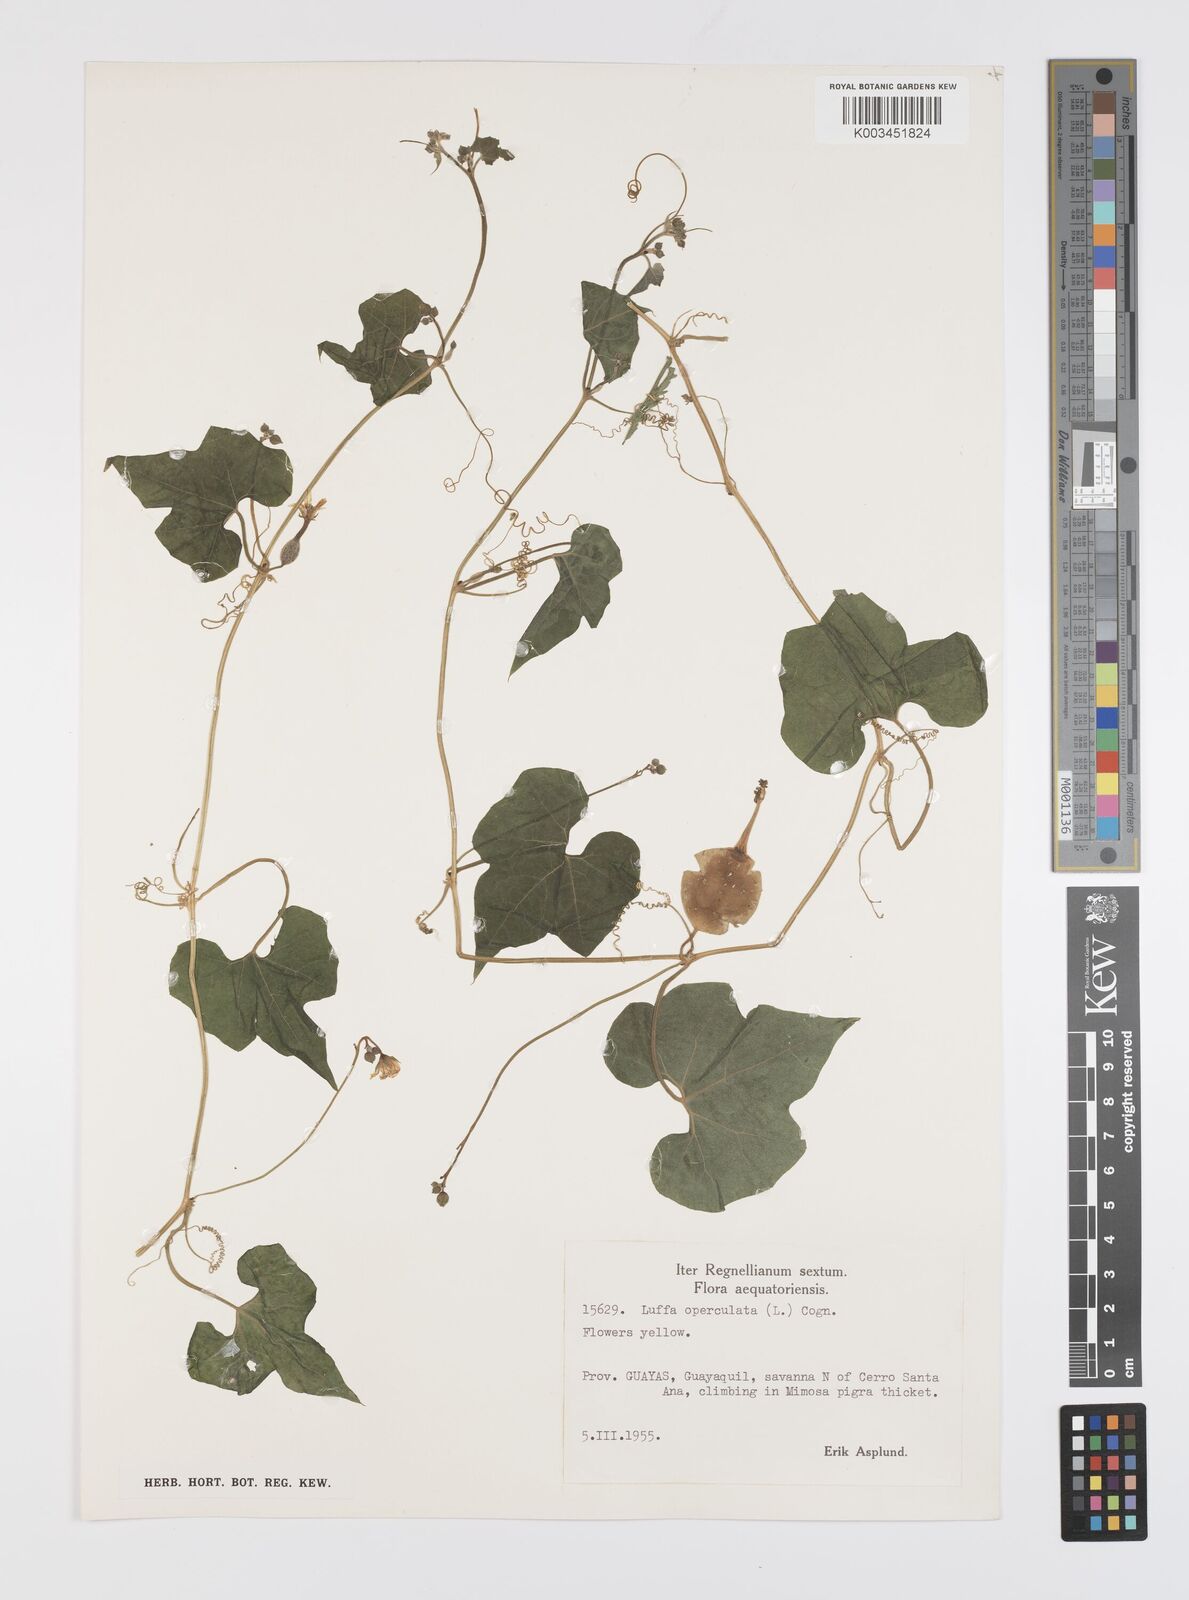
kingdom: Plantae
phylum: Tracheophyta
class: Magnoliopsida
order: Cucurbitales
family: Cucurbitaceae
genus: Luffa
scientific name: Luffa operculata
